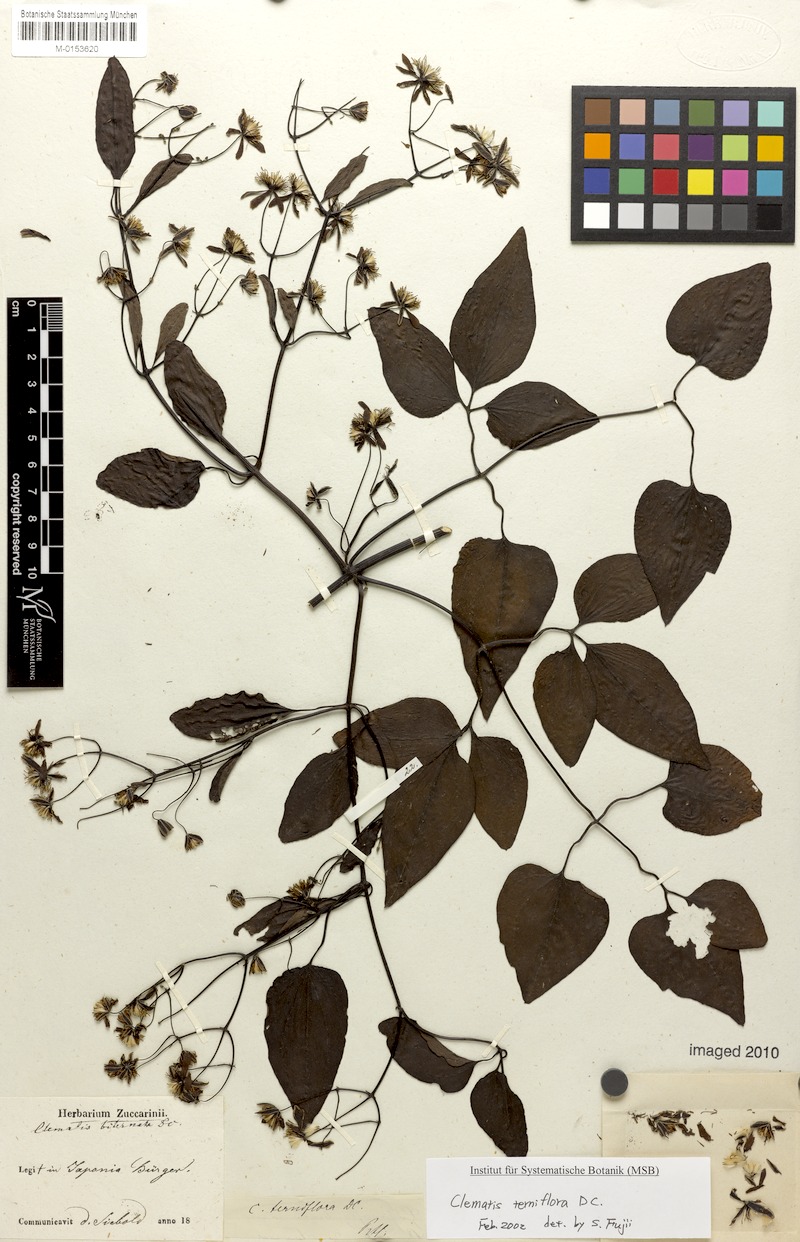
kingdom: Plantae
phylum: Tracheophyta
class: Magnoliopsida
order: Ranunculales
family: Ranunculaceae
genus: Clematis
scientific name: Clematis terniflora
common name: Sweet autumn clematis
